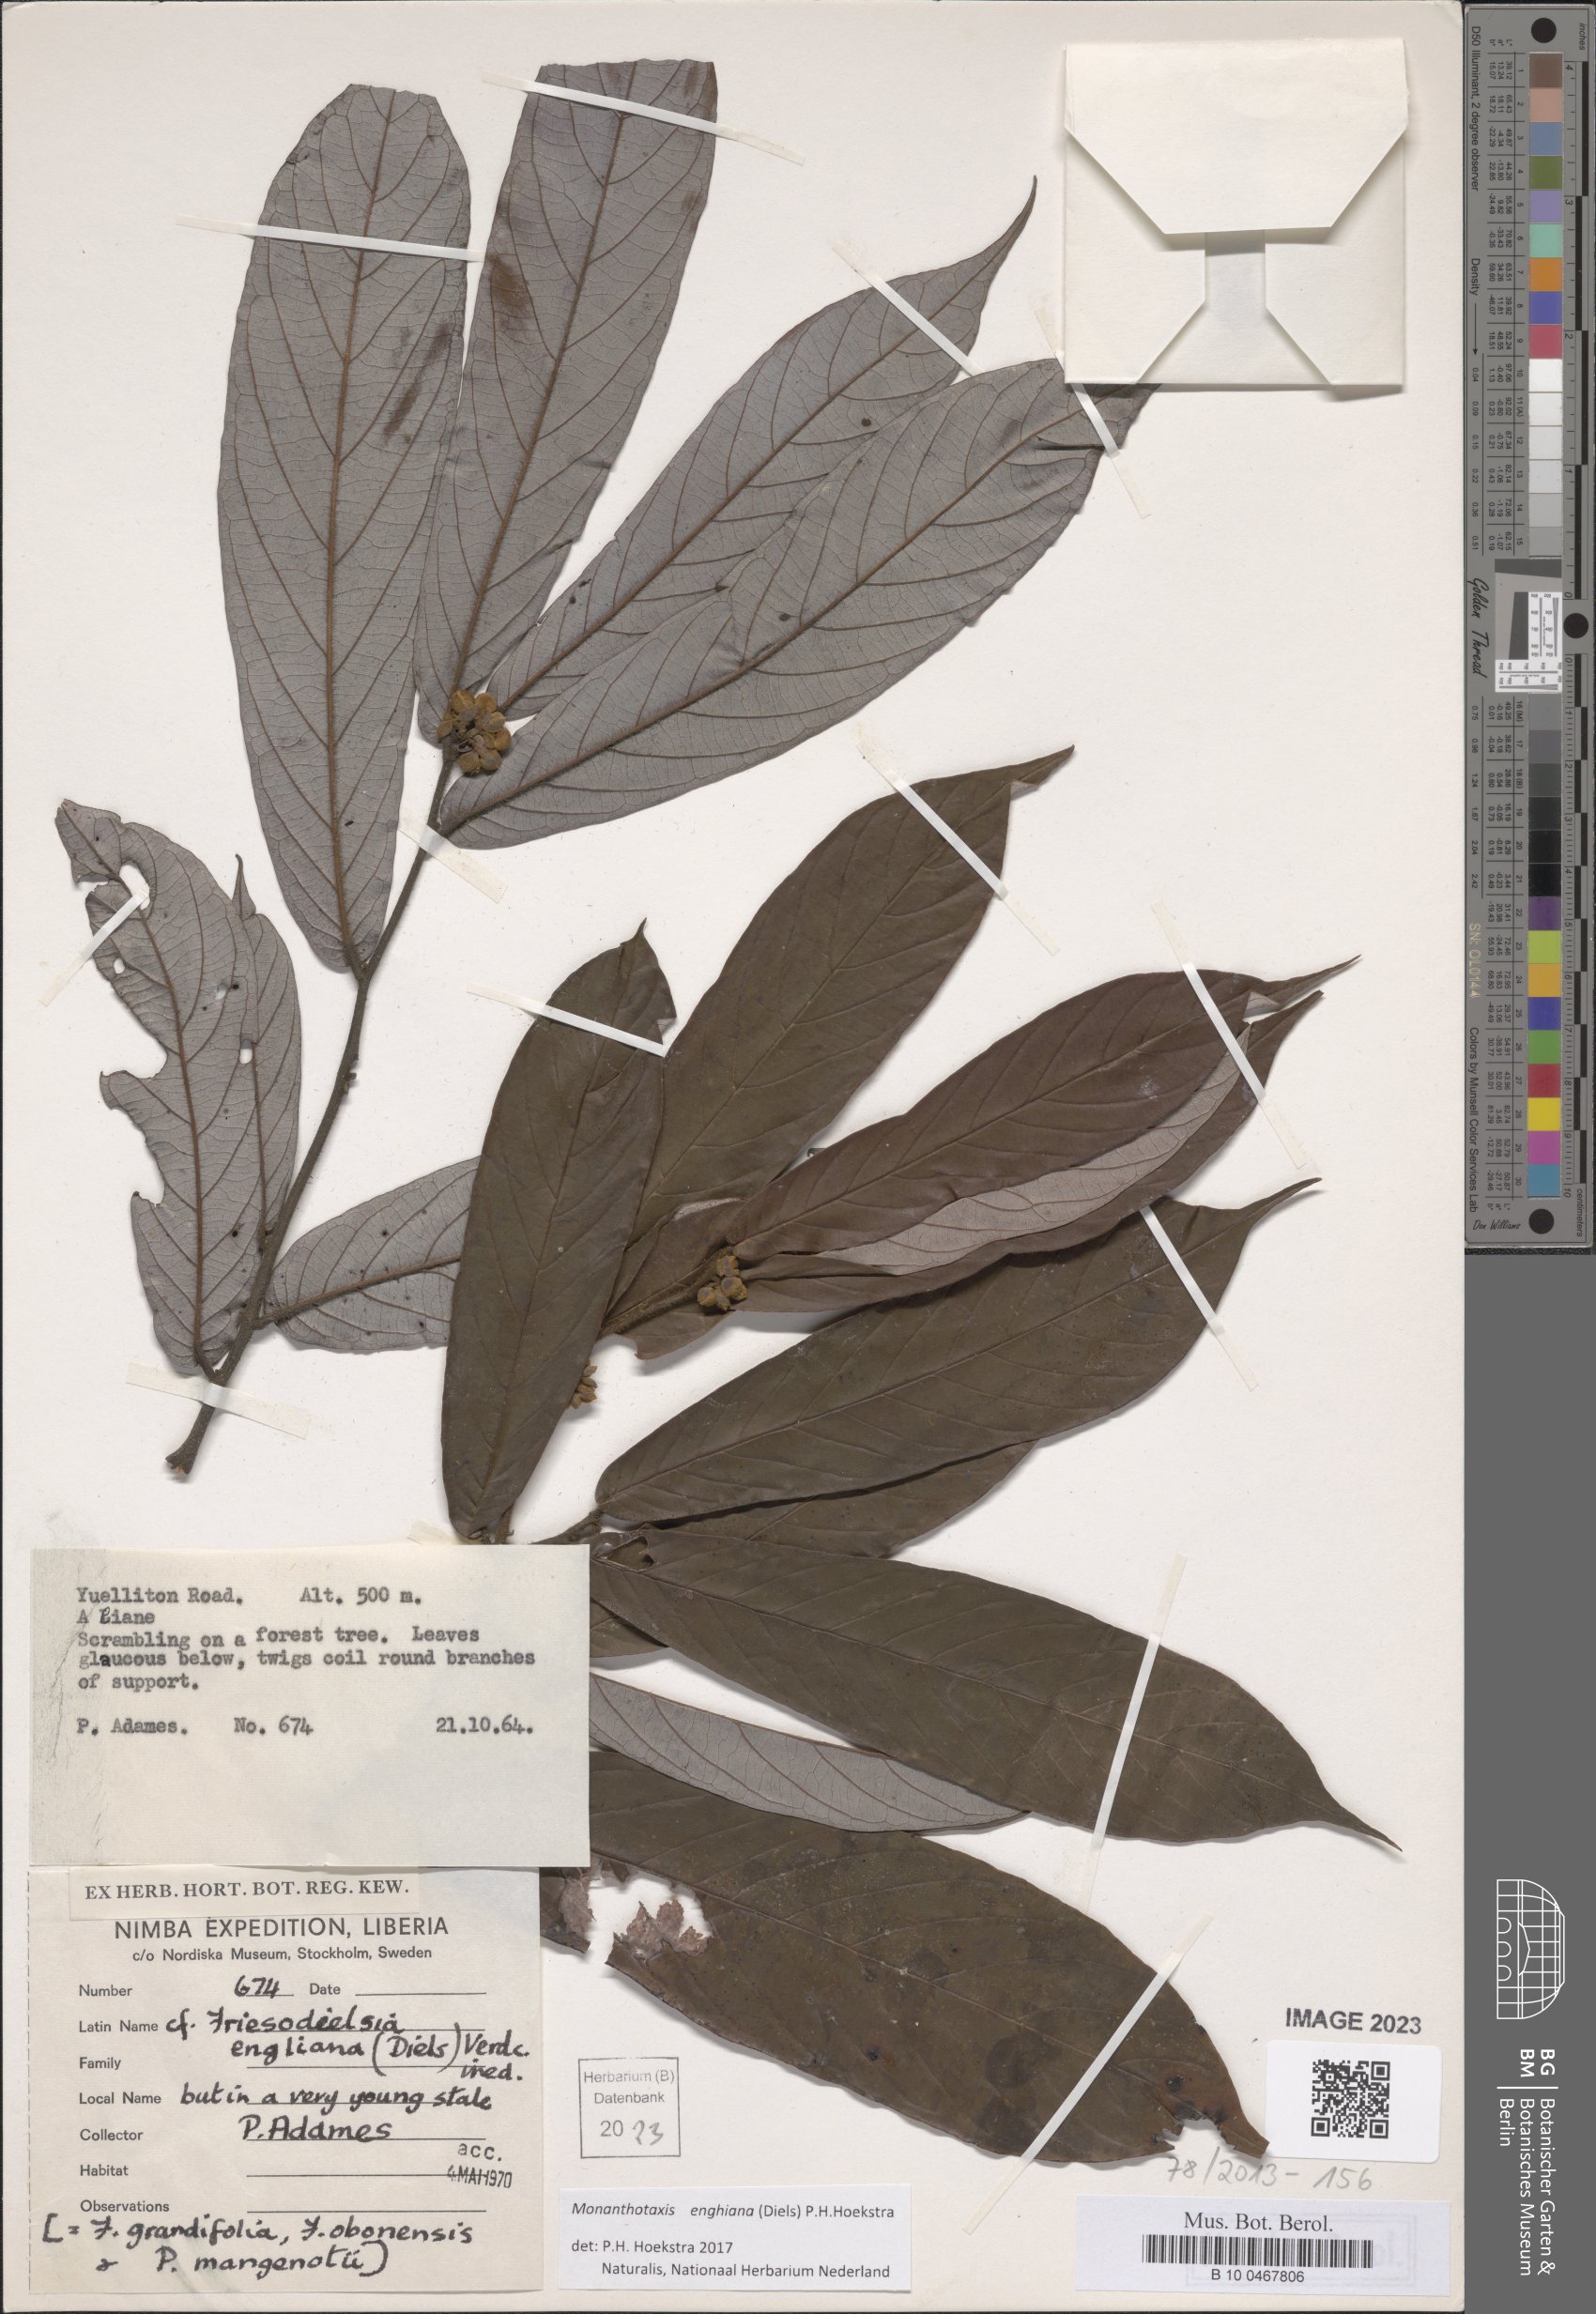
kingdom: Plantae
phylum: Tracheophyta
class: Magnoliopsida
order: Magnoliales
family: Annonaceae
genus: Friesodielsia
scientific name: Friesodielsia enghiana
